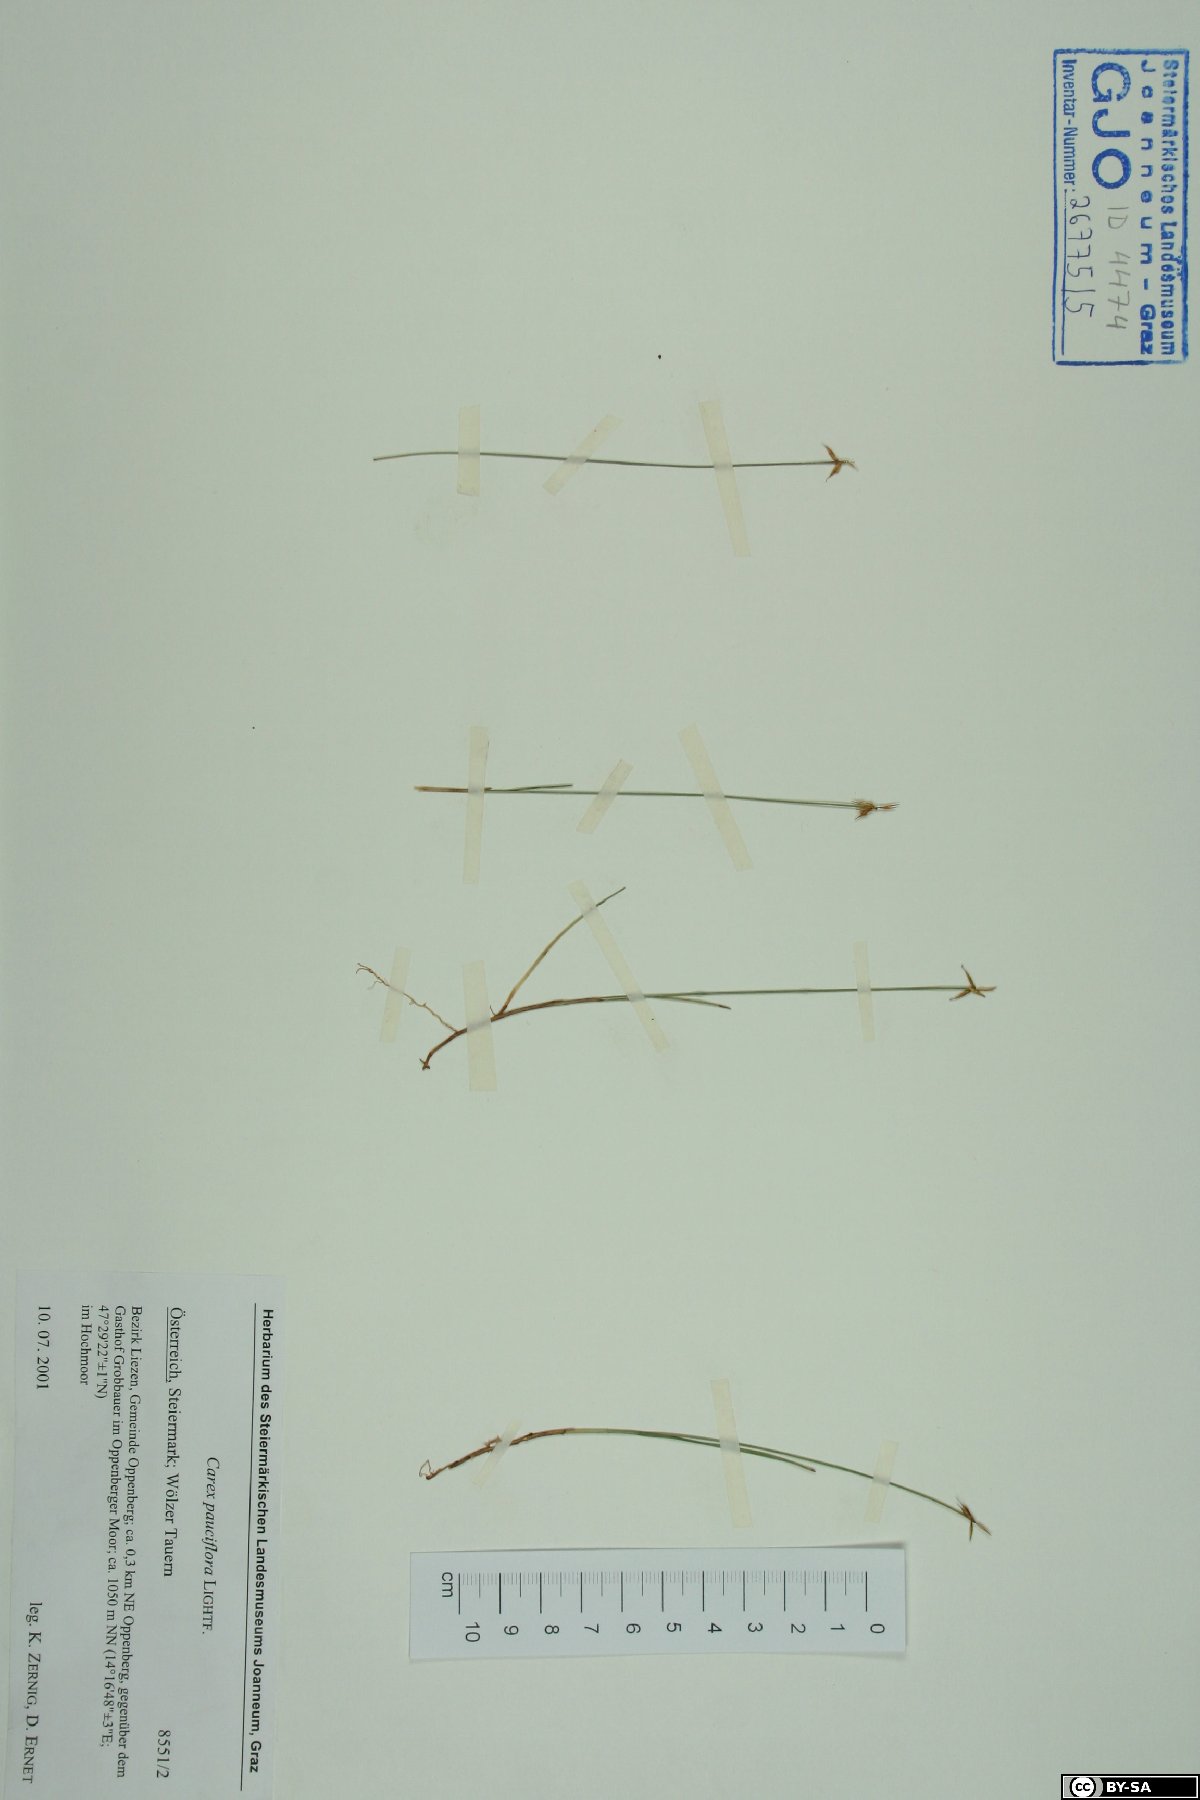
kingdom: Plantae
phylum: Tracheophyta
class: Liliopsida
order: Poales
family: Cyperaceae
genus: Carex
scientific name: Carex pauciflora
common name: Few-flowered sedge
